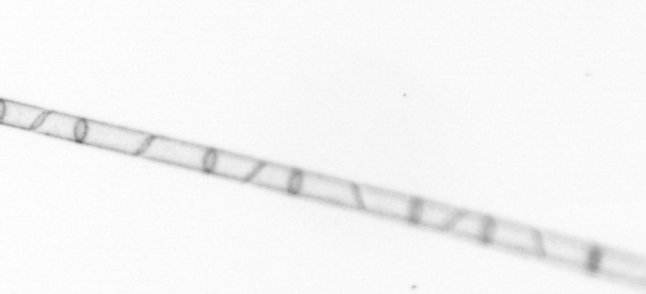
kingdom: Chromista
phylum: Ochrophyta
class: Bacillariophyceae
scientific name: Bacillariophyceae
